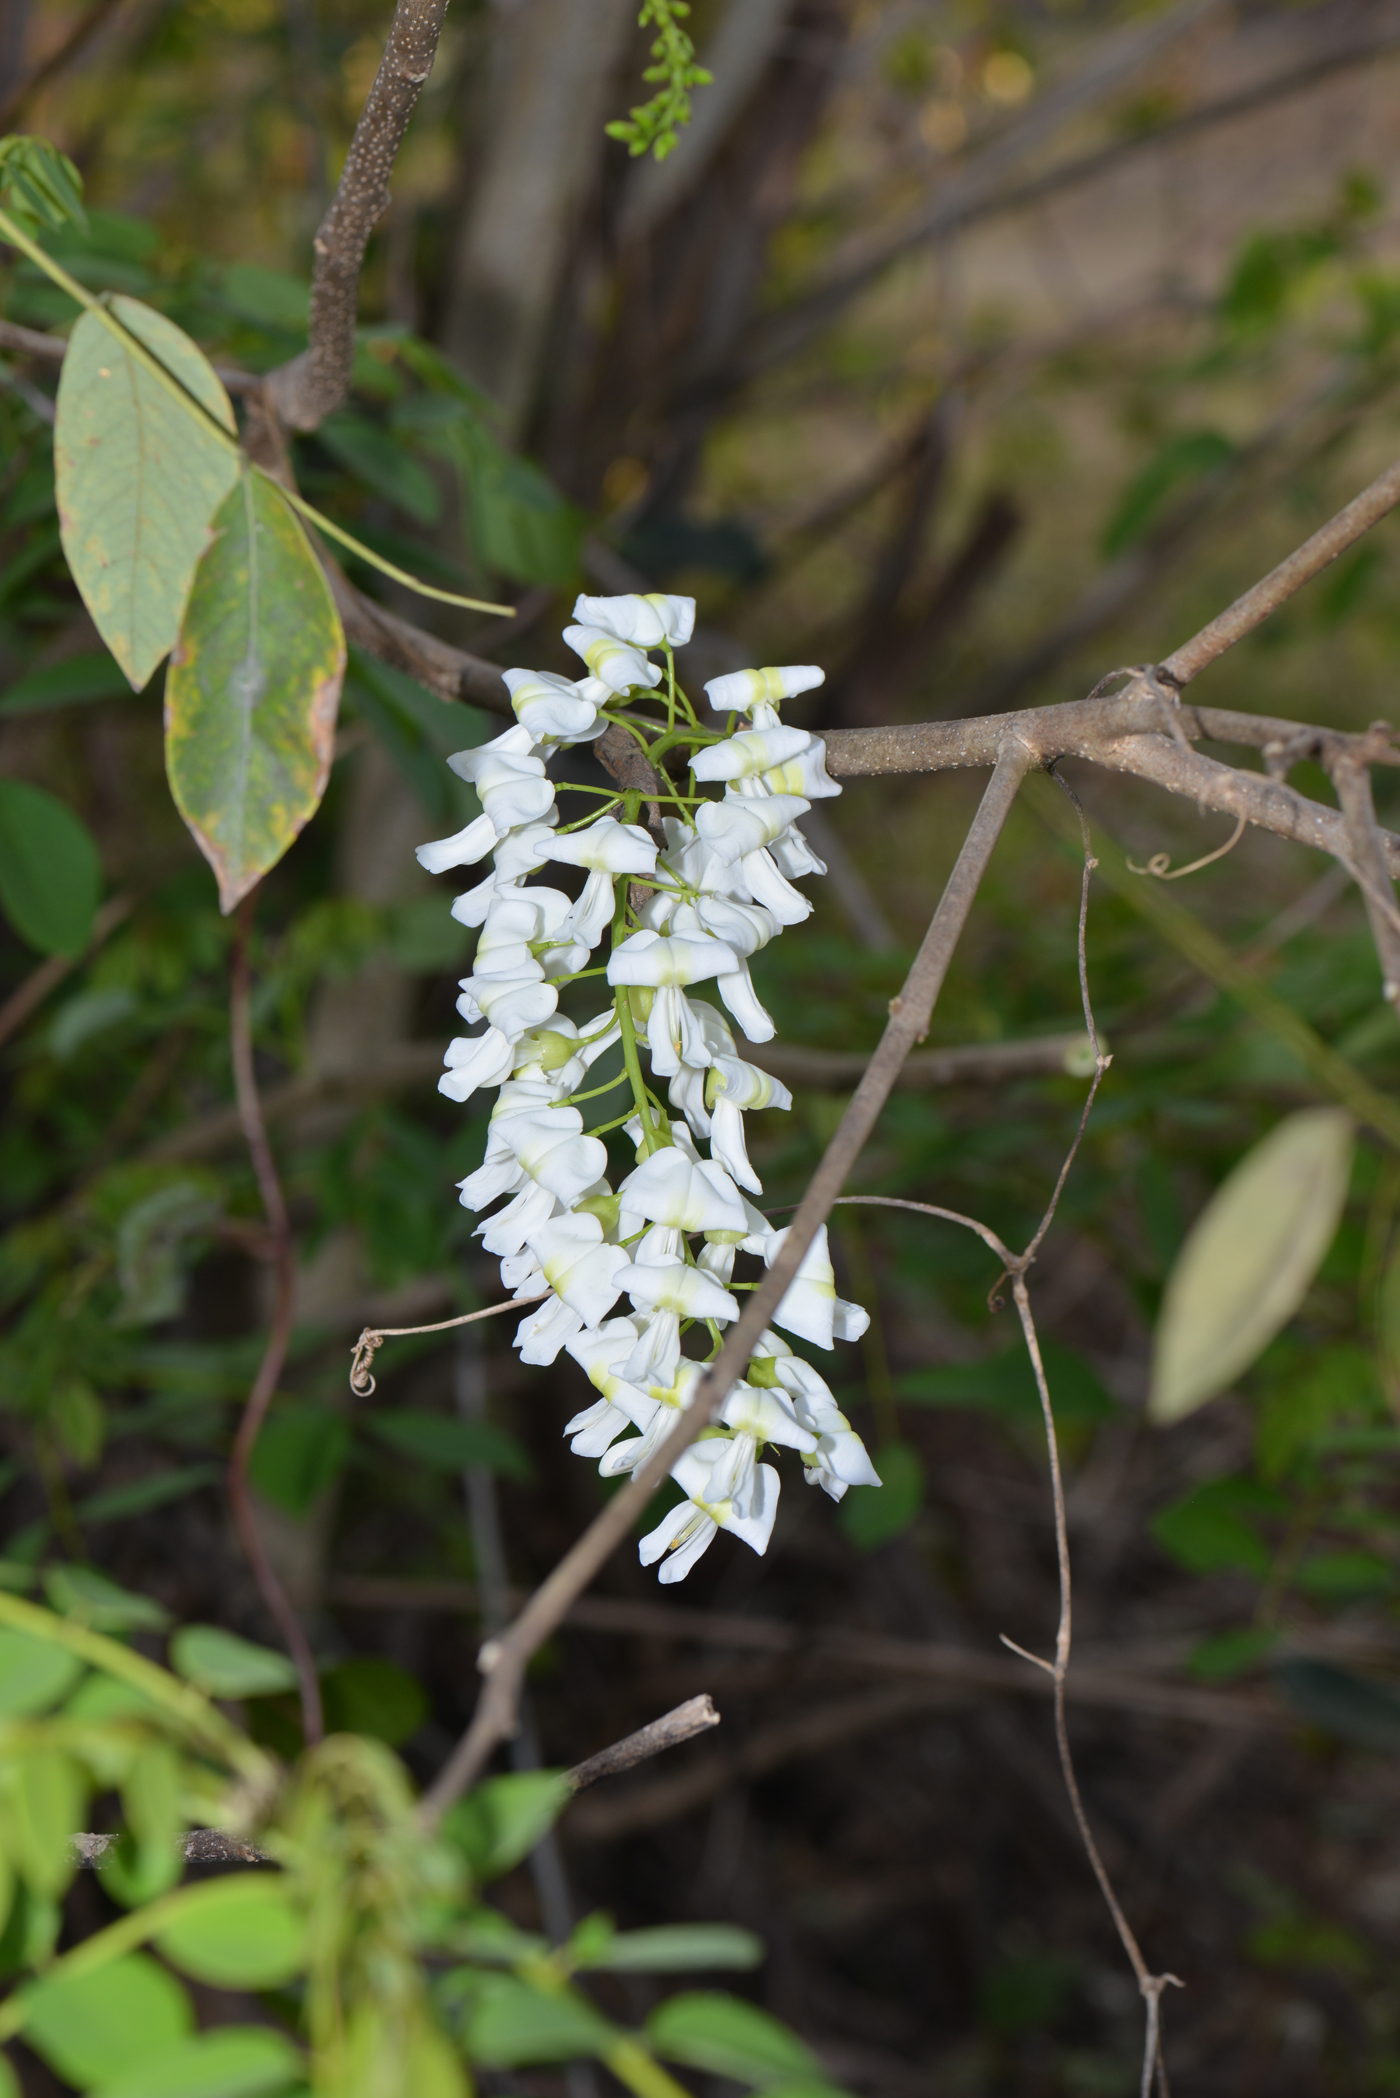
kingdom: Plantae
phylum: Tracheophyta
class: Magnoliopsida
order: Fabales
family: Fabaceae
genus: Gliricidia
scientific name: Gliricidia sepium
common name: Quickstick
